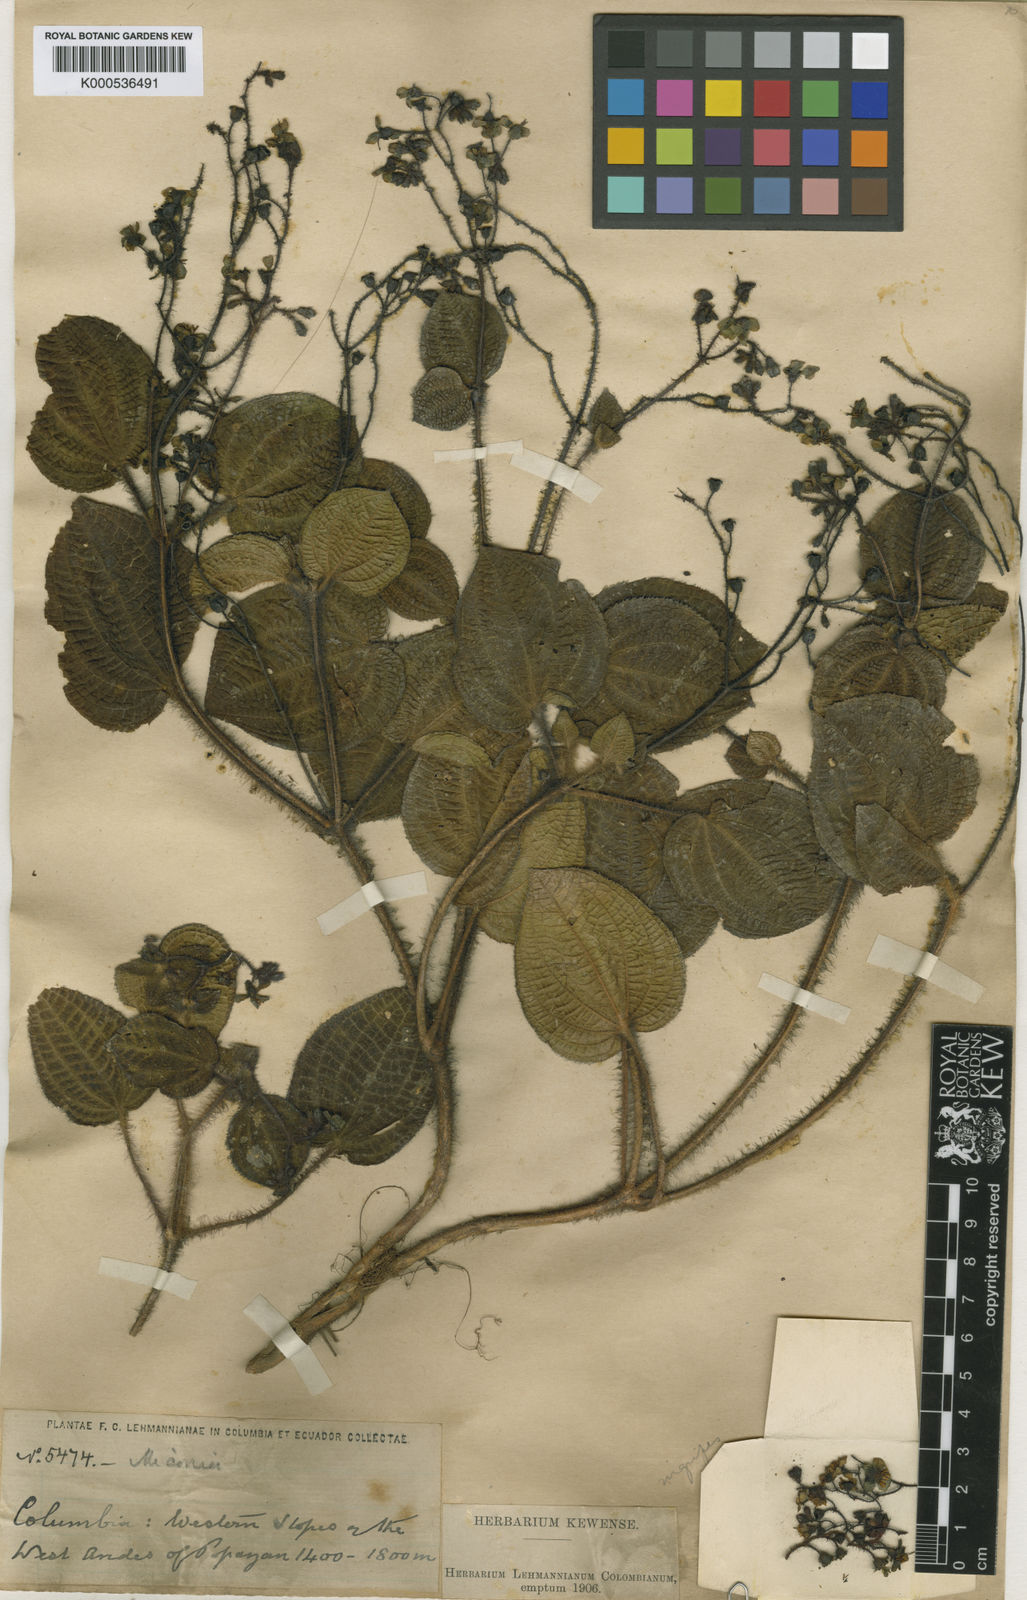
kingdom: Plantae
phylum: Tracheophyta
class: Magnoliopsida
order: Myrtales
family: Melastomataceae
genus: Miconia
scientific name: Miconia nigripes
